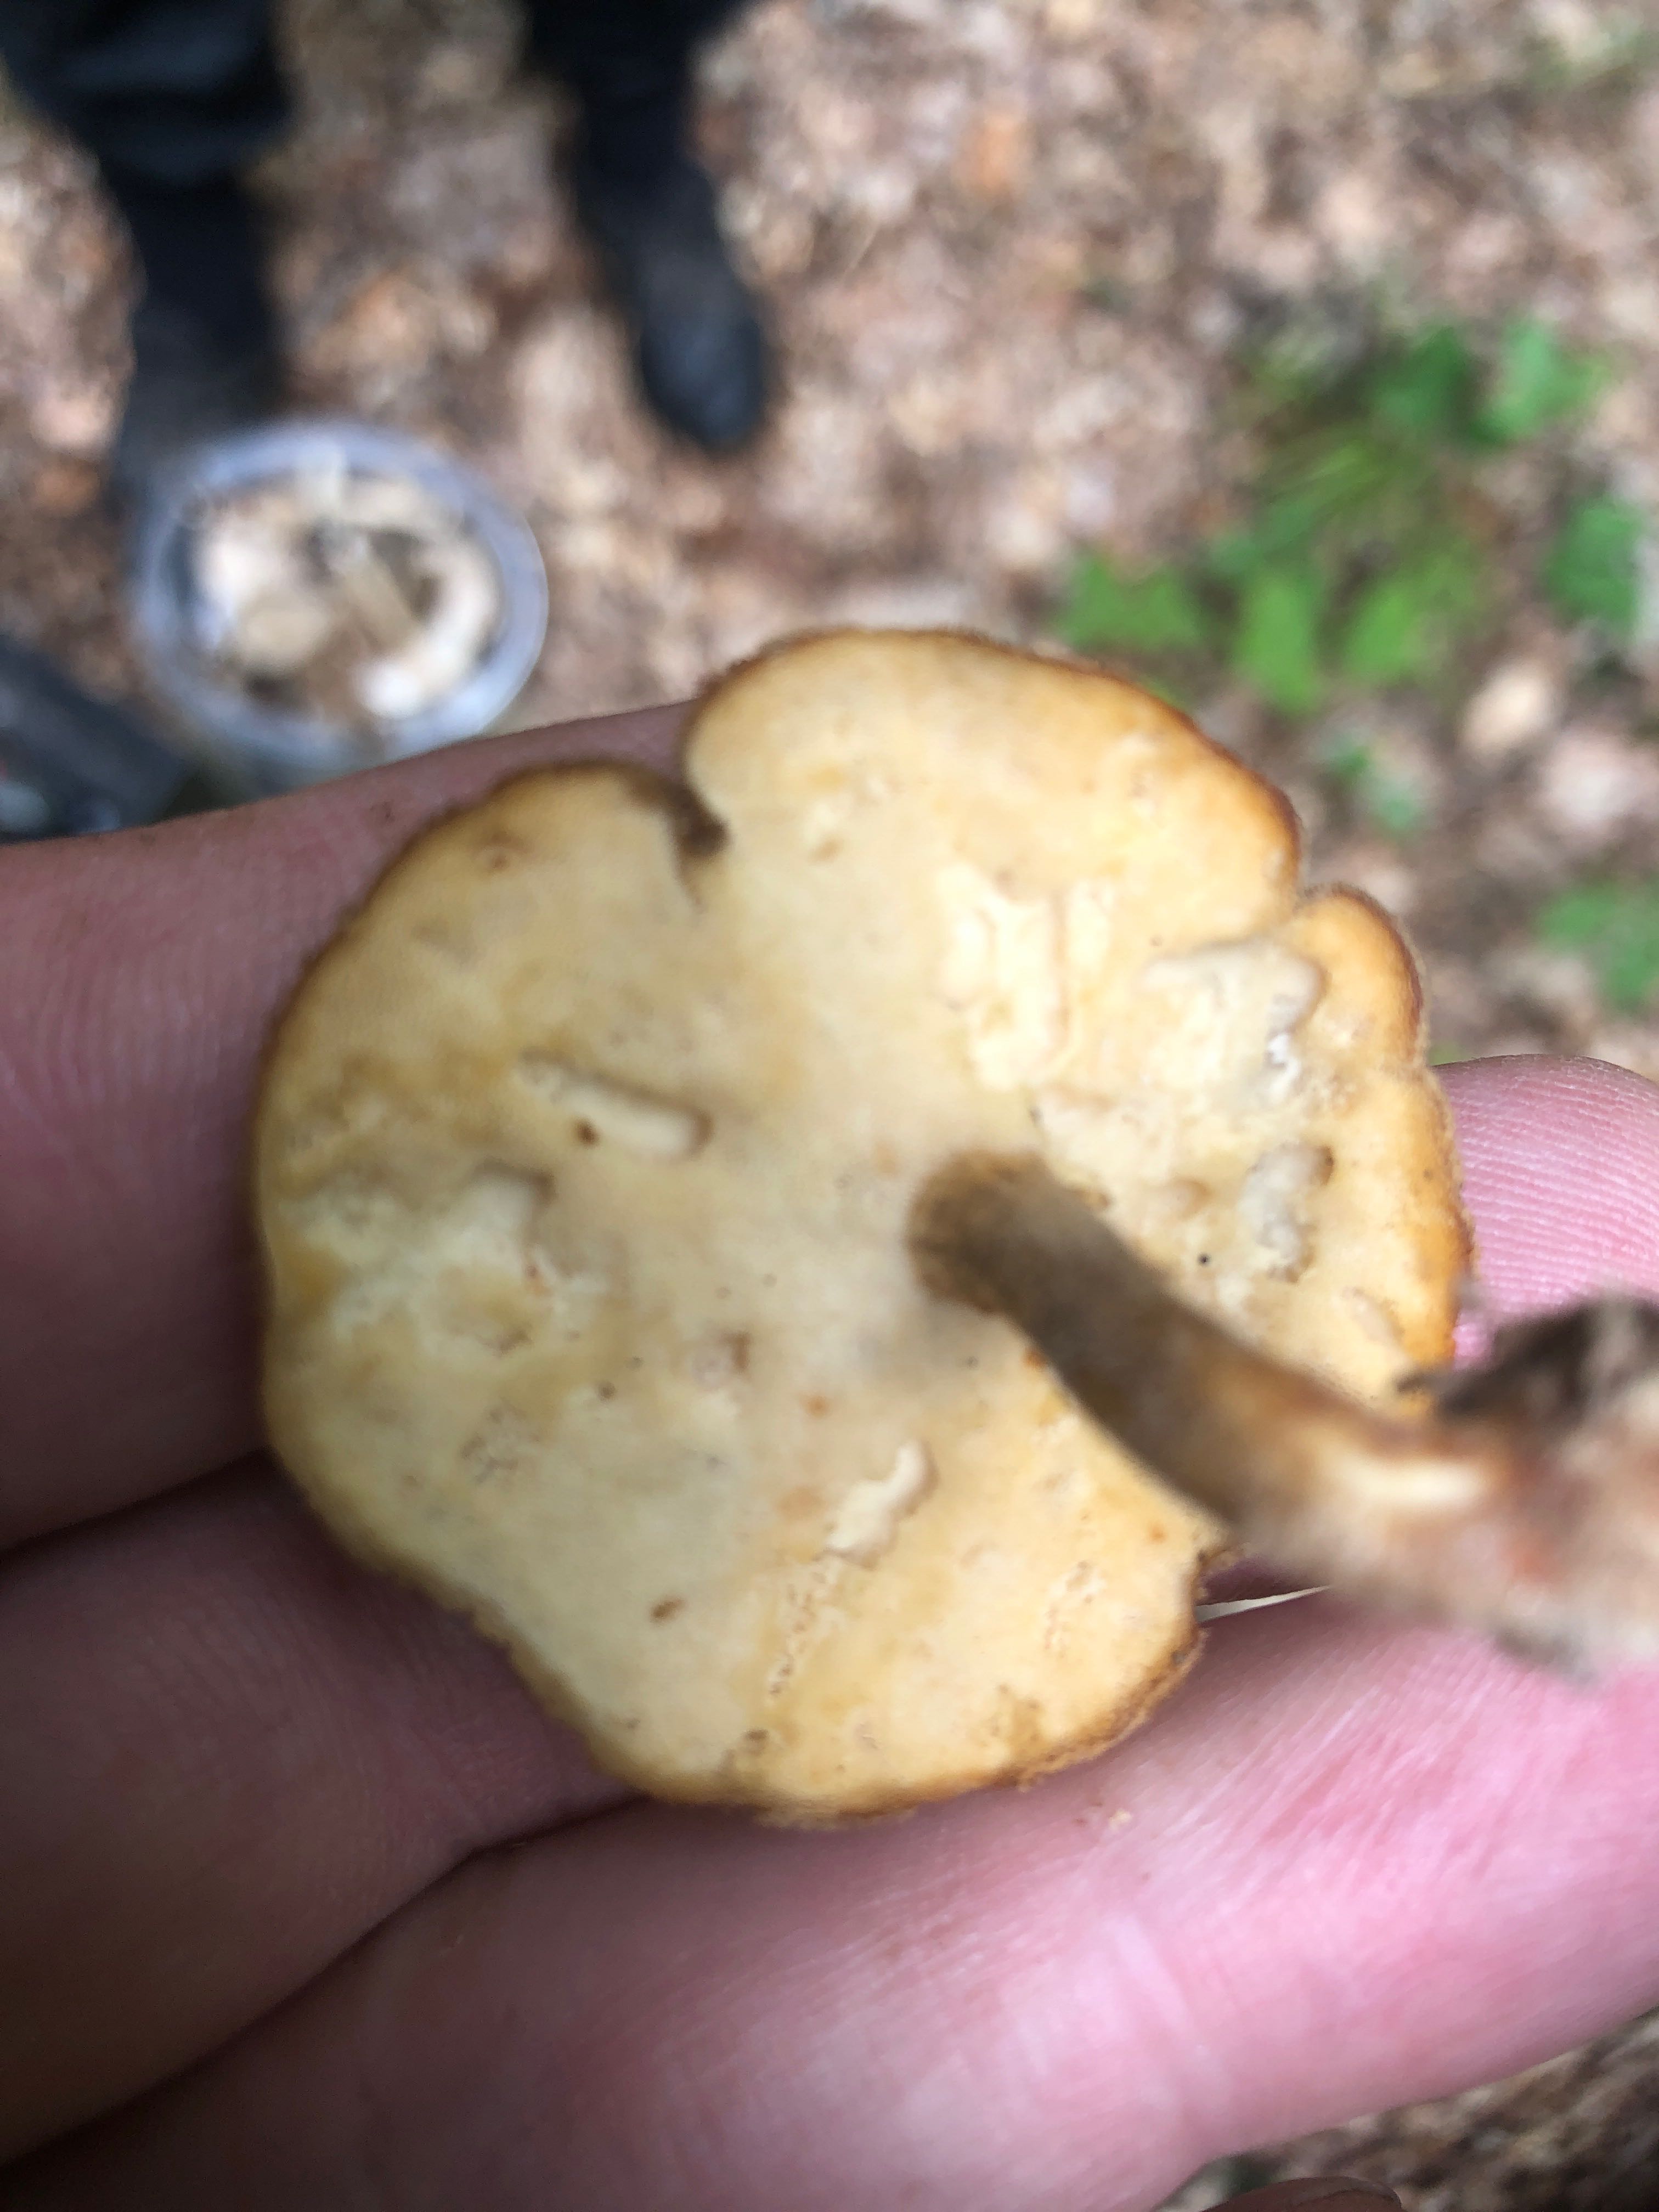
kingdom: Fungi
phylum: Basidiomycota
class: Agaricomycetes
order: Polyporales
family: Polyporaceae
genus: Lentinus
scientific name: Lentinus substrictus
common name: forårs-stilkporesvamp
